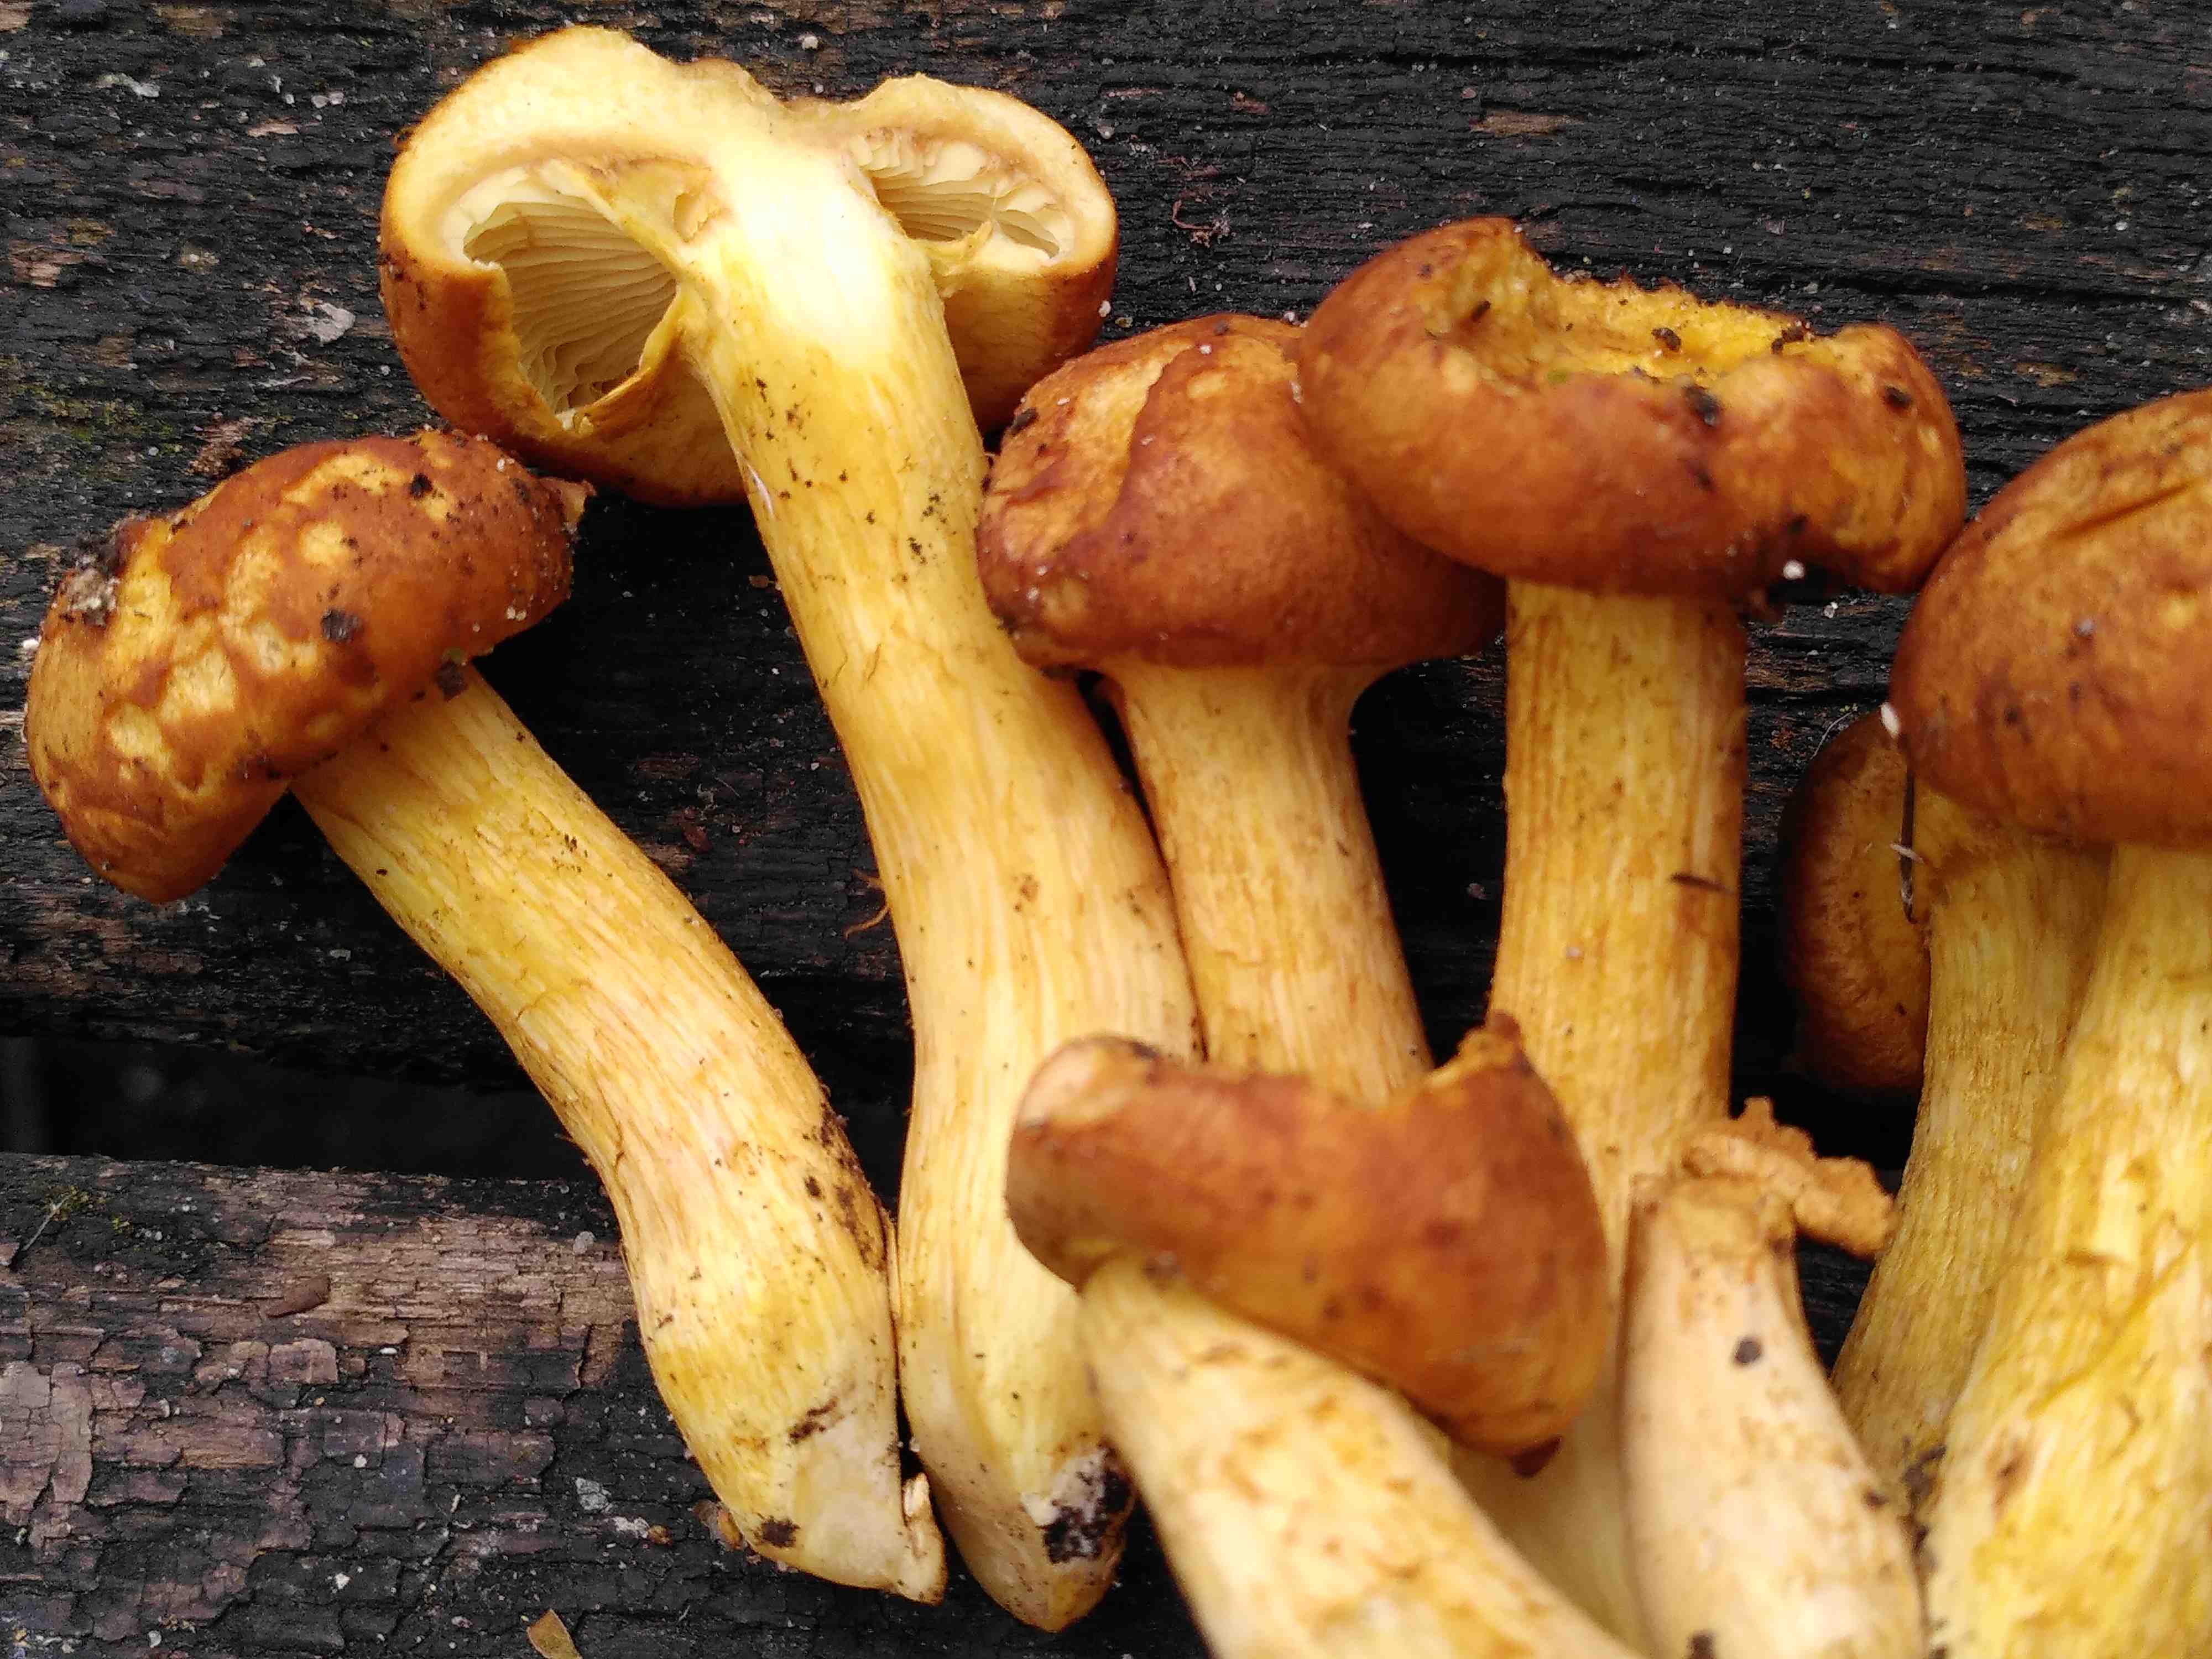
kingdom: Fungi
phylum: Basidiomycota
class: Agaricomycetes
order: Agaricales
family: Hymenogastraceae
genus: Gymnopilus
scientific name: Gymnopilus spectabilis
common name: fibret flammehat
